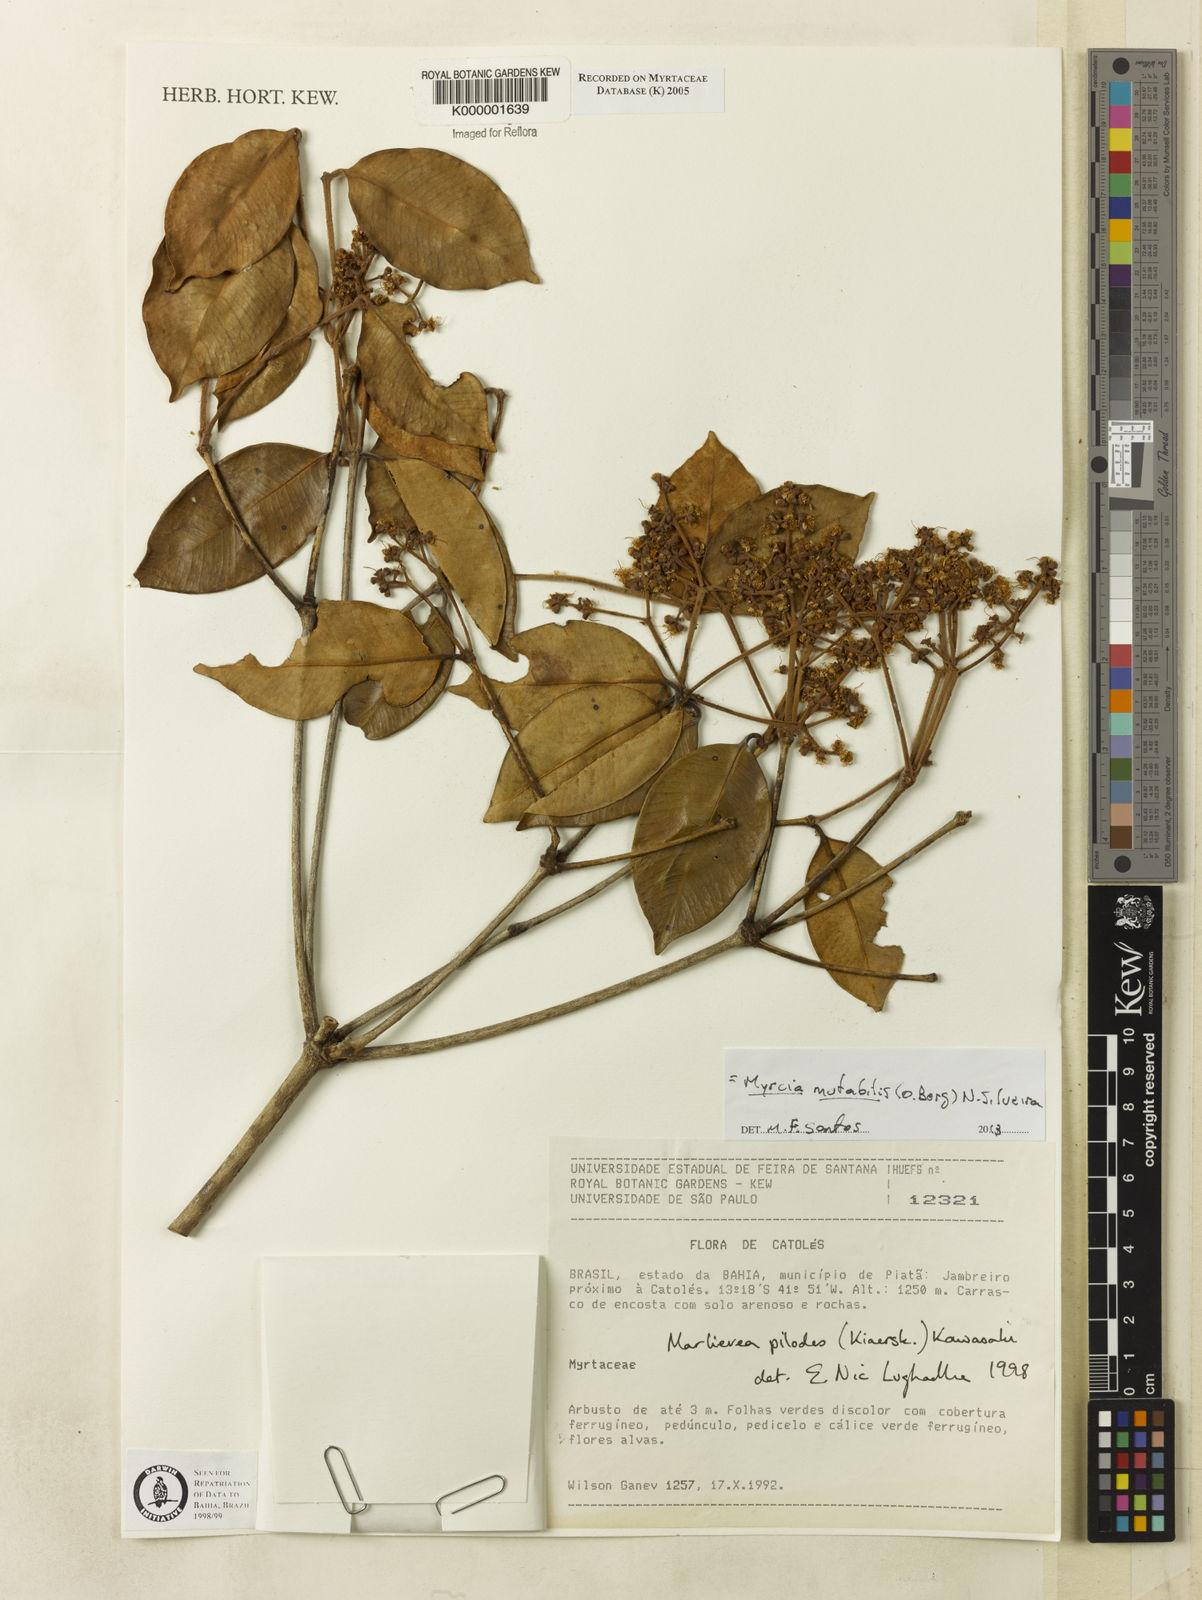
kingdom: Plantae
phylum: Tracheophyta
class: Magnoliopsida
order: Myrtales
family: Myrtaceae
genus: Myrcia
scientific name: Myrcia mutabilis
